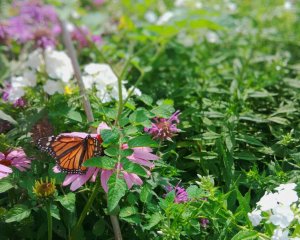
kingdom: Animalia
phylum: Arthropoda
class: Insecta
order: Lepidoptera
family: Nymphalidae
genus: Danaus
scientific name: Danaus plexippus
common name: Monarch
